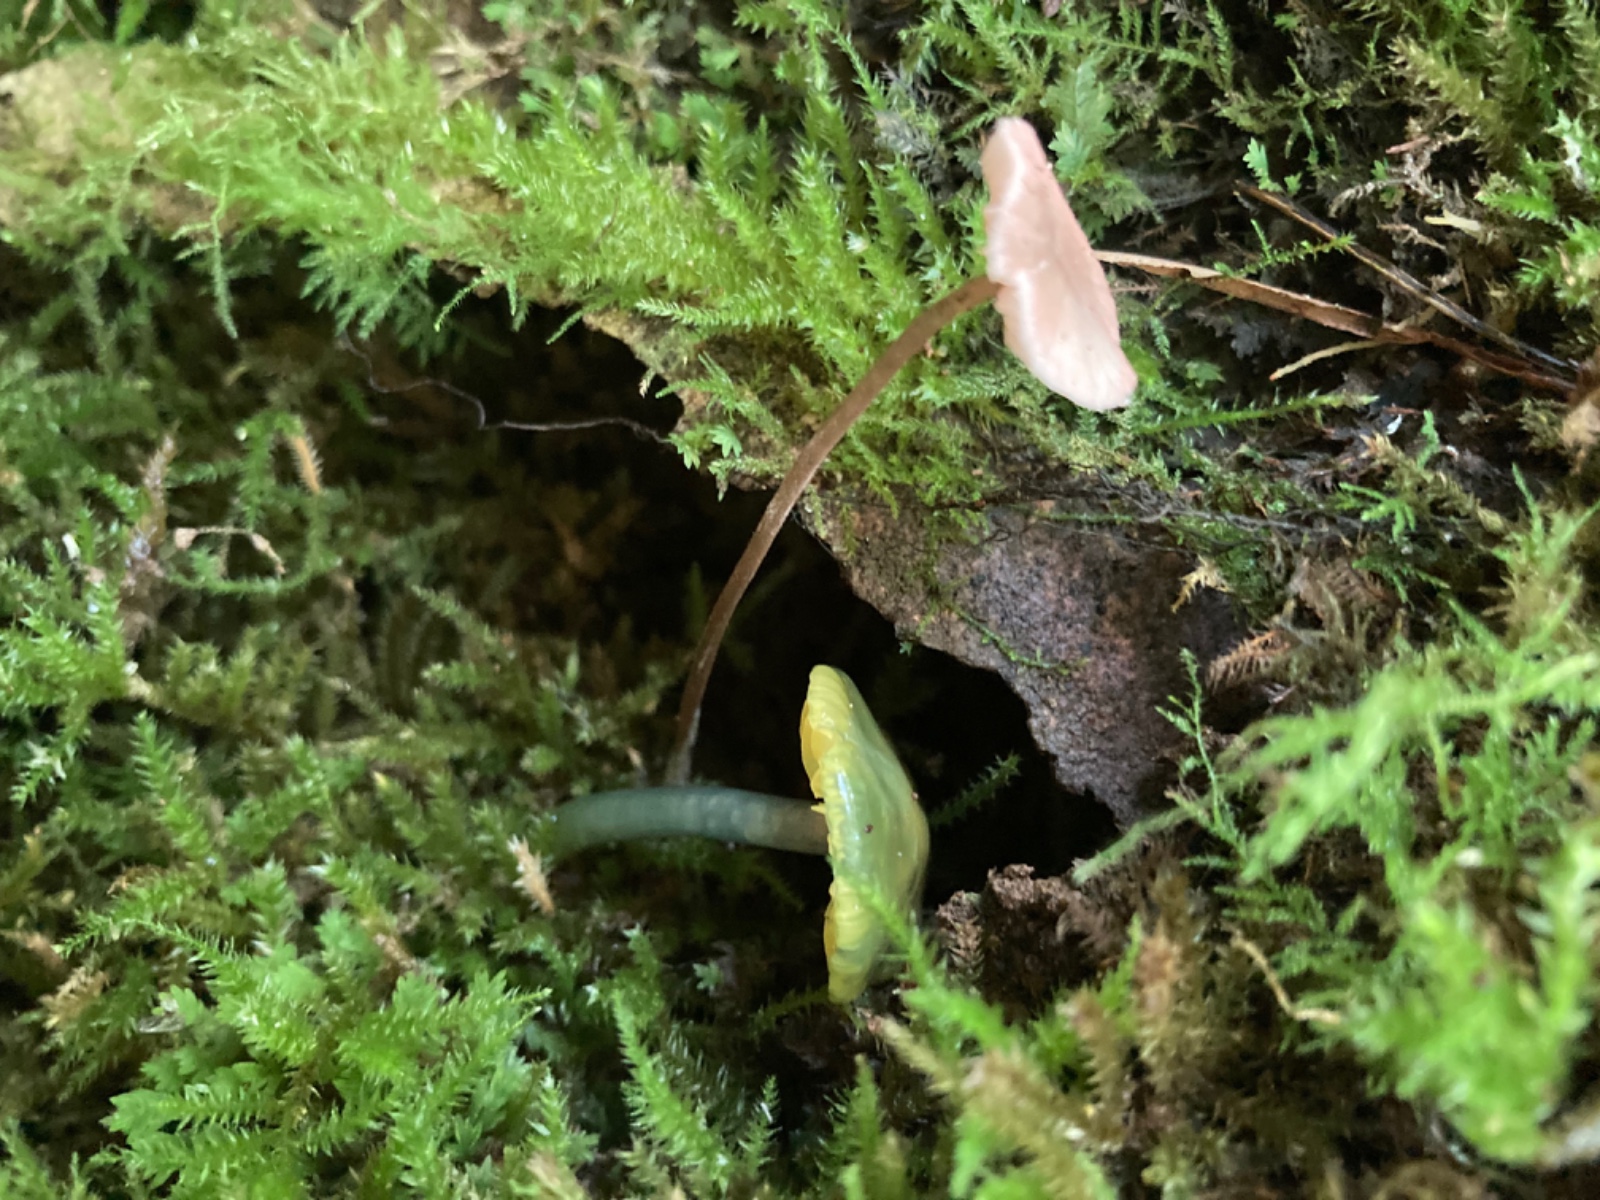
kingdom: Fungi
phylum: Basidiomycota
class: Agaricomycetes
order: Agaricales
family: Hygrophoraceae
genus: Gliophorus
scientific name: Gliophorus psittacinus
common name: papegøje-vokshat
